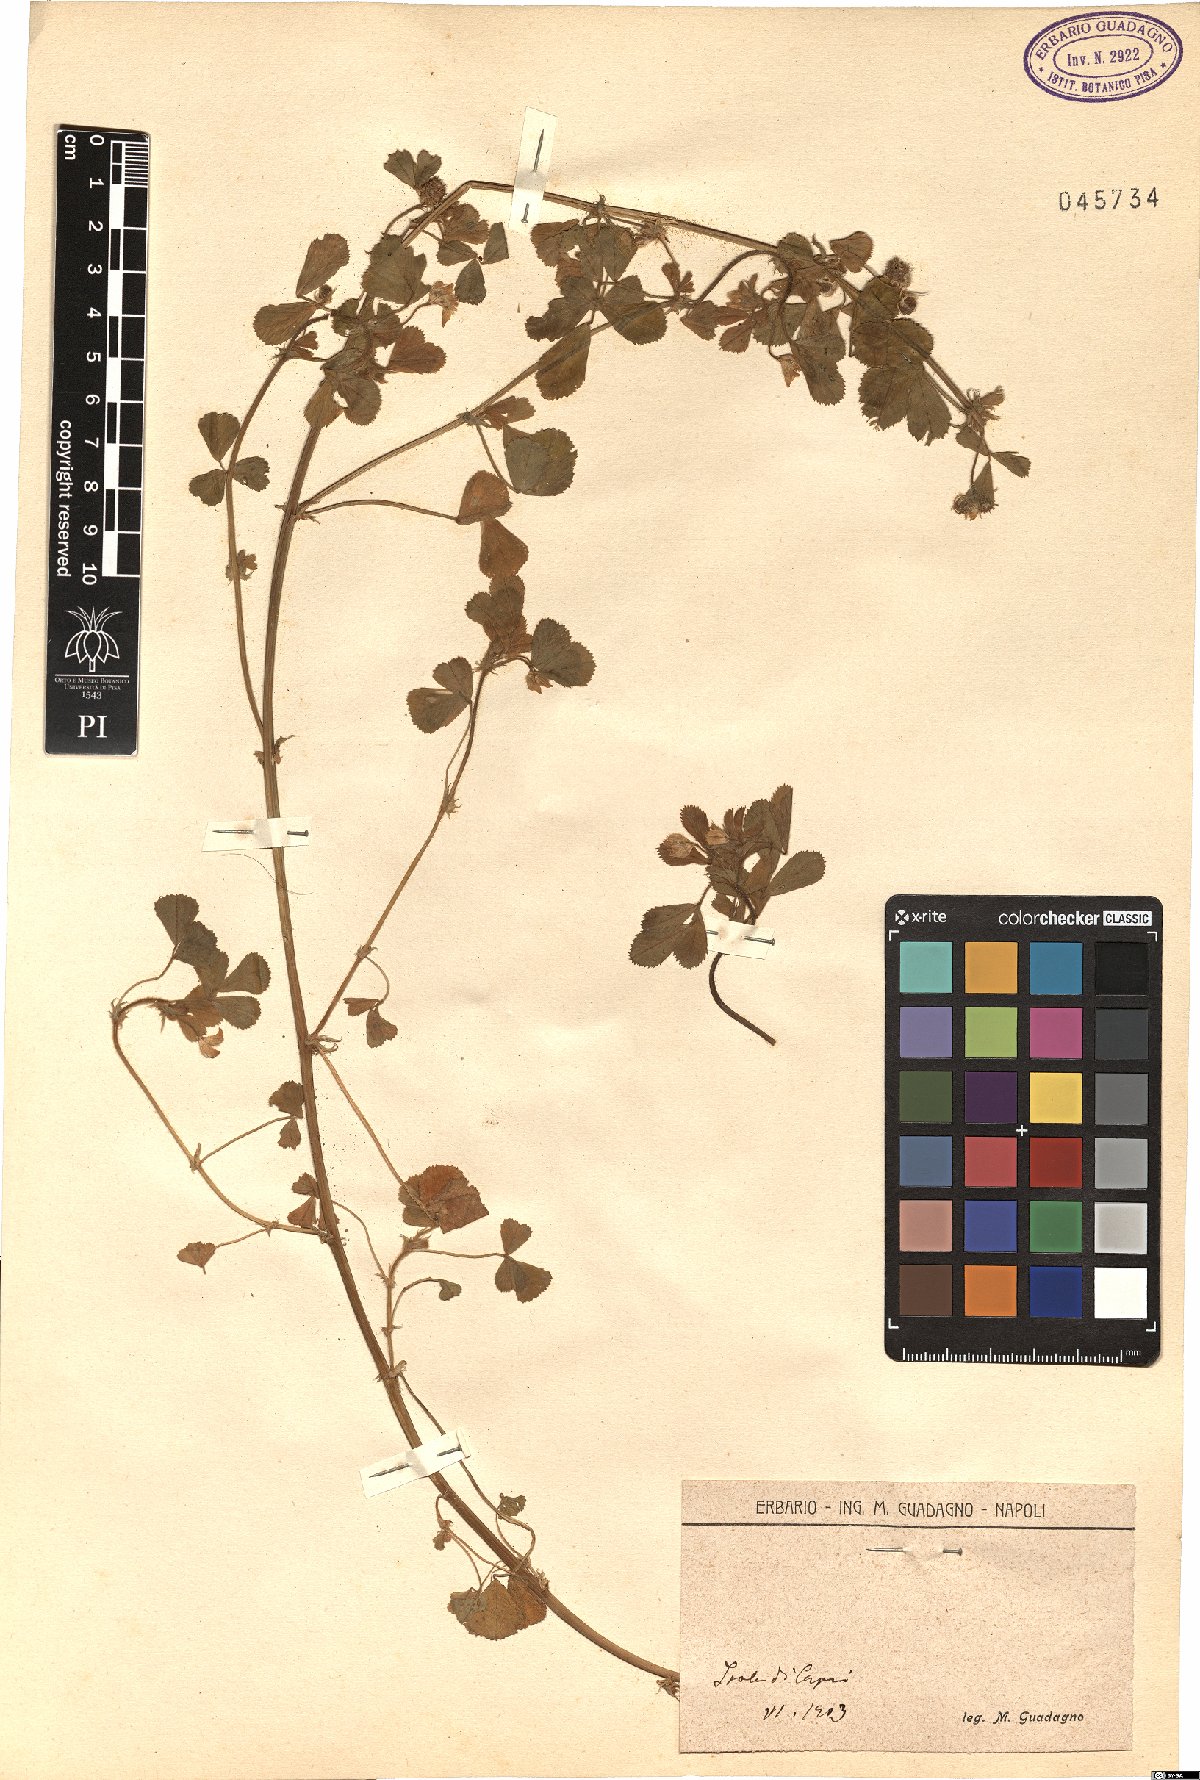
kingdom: Plantae
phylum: Tracheophyta
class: Magnoliopsida
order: Fabales
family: Fabaceae
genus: Medicago
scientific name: Medicago
